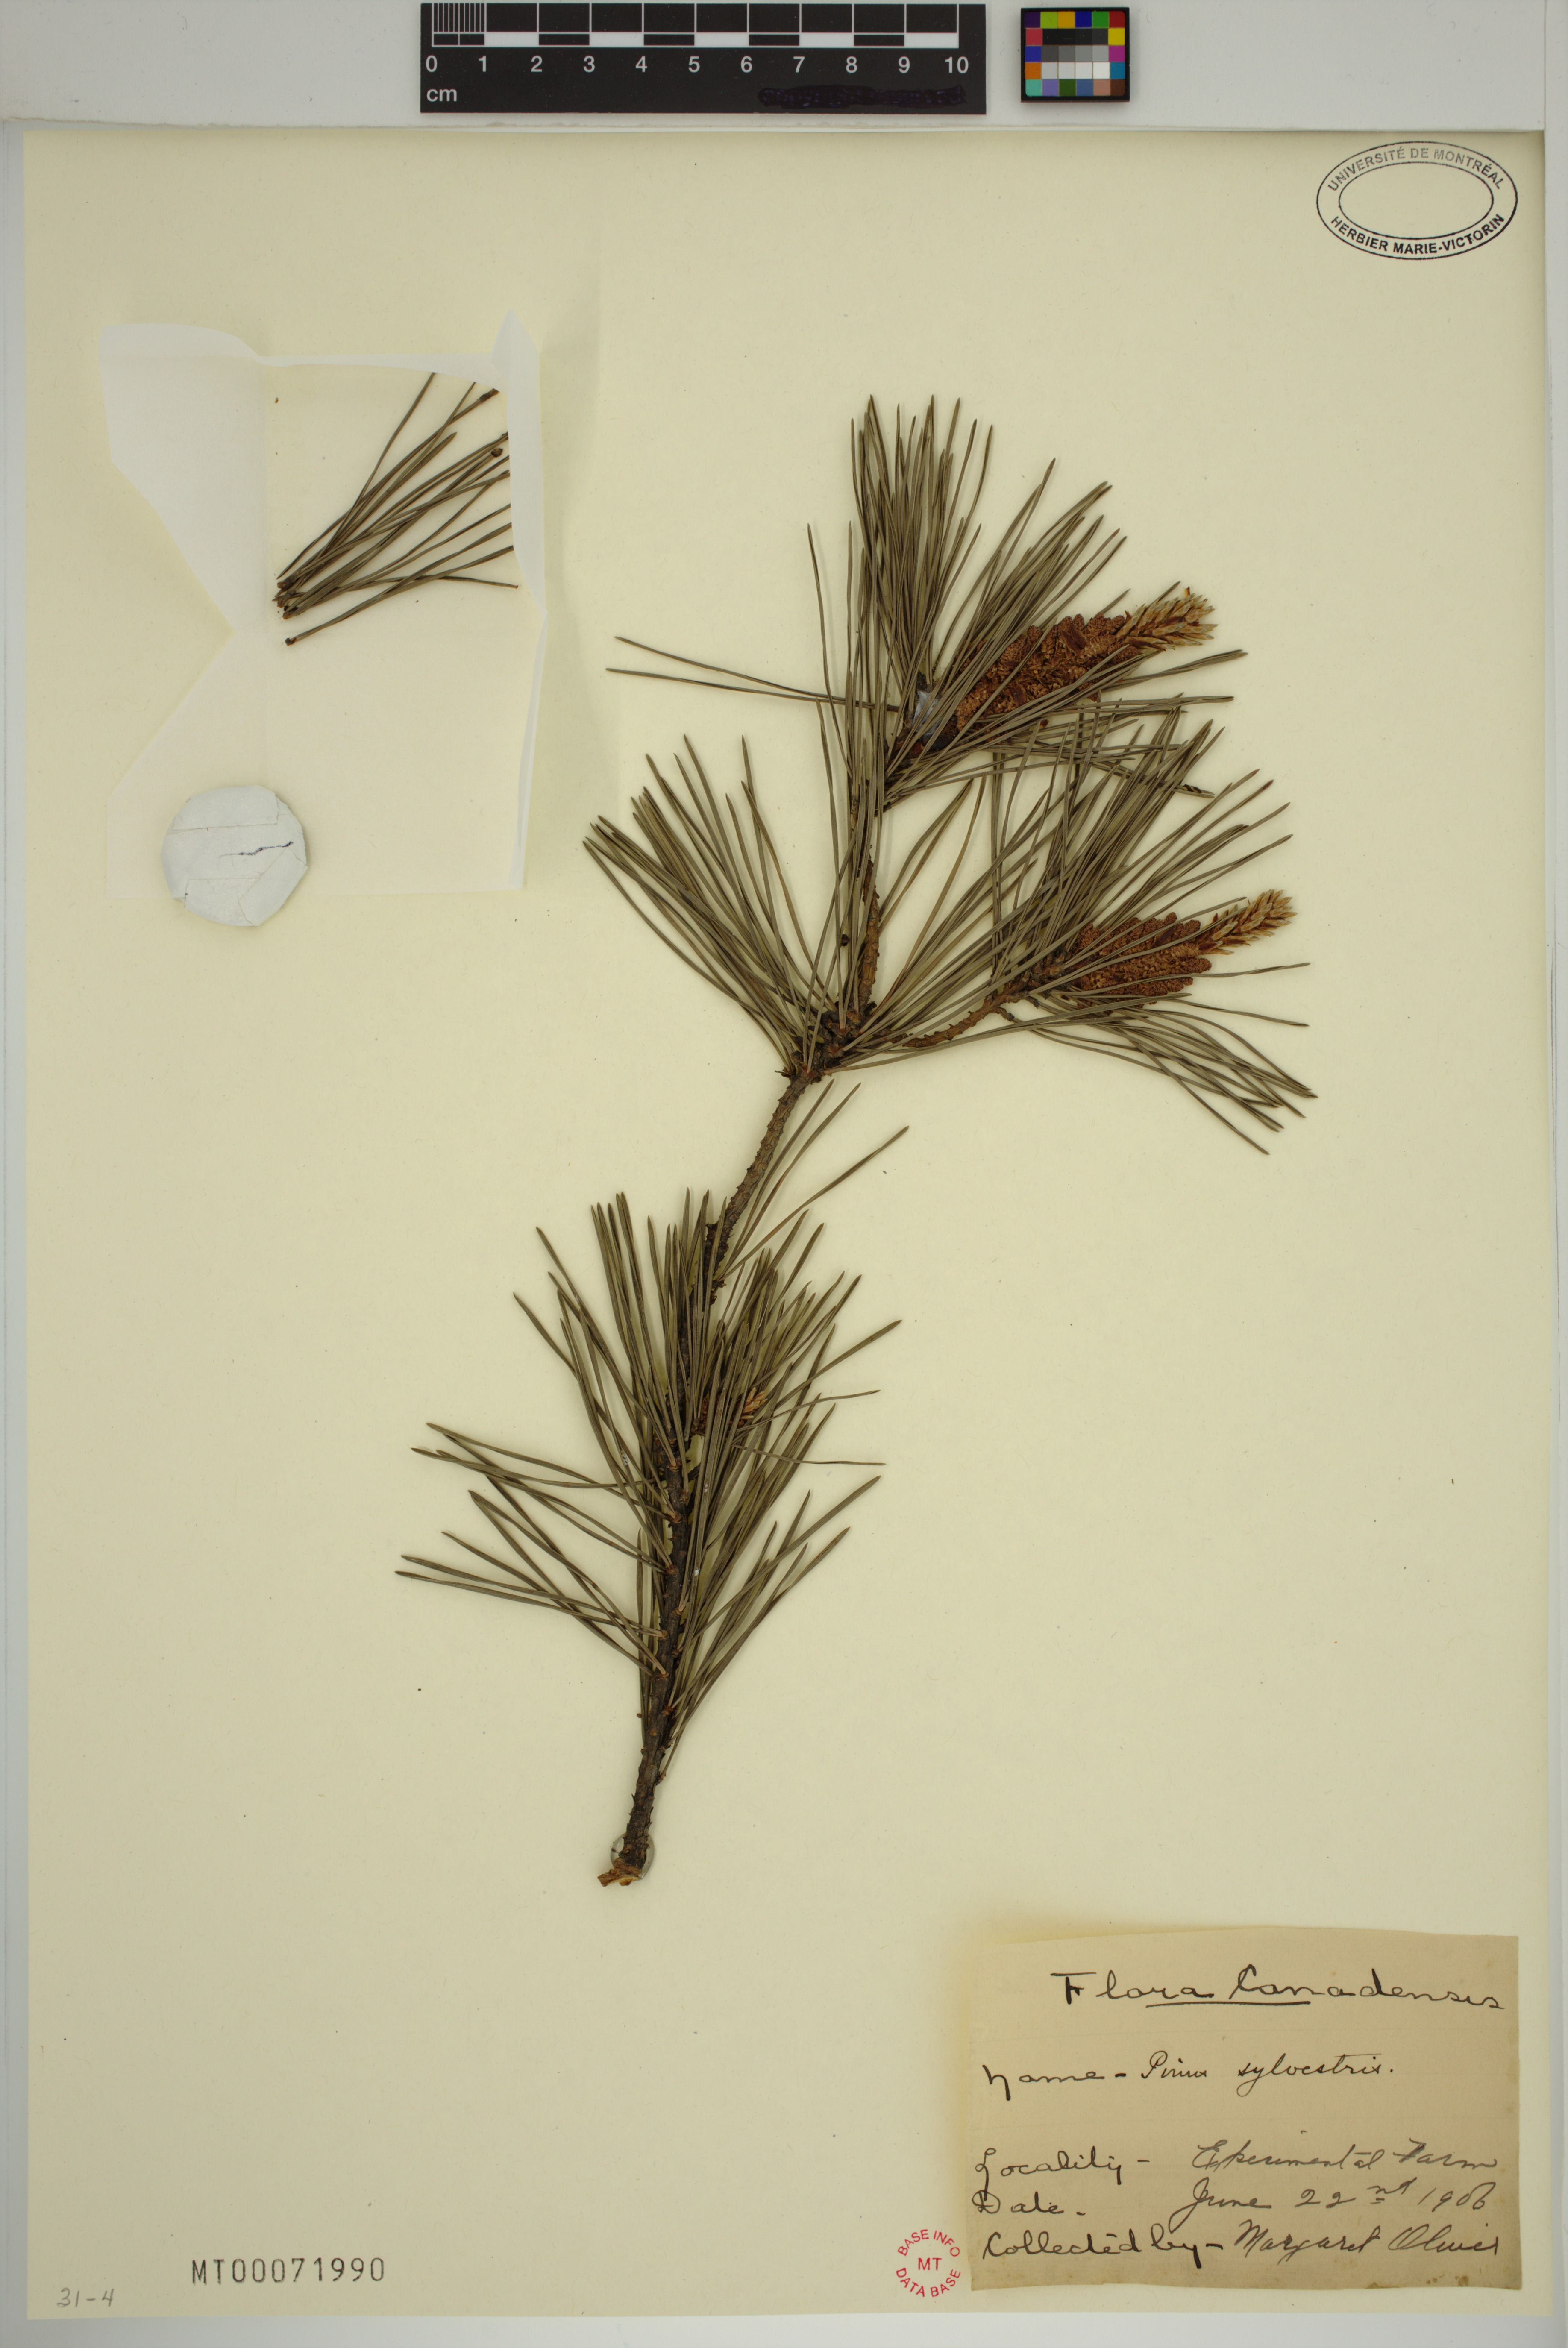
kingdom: Plantae
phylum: Tracheophyta
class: Pinopsida
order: Pinales
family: Pinaceae
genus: Pinus
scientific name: Pinus sylvestris
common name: Scots pine
